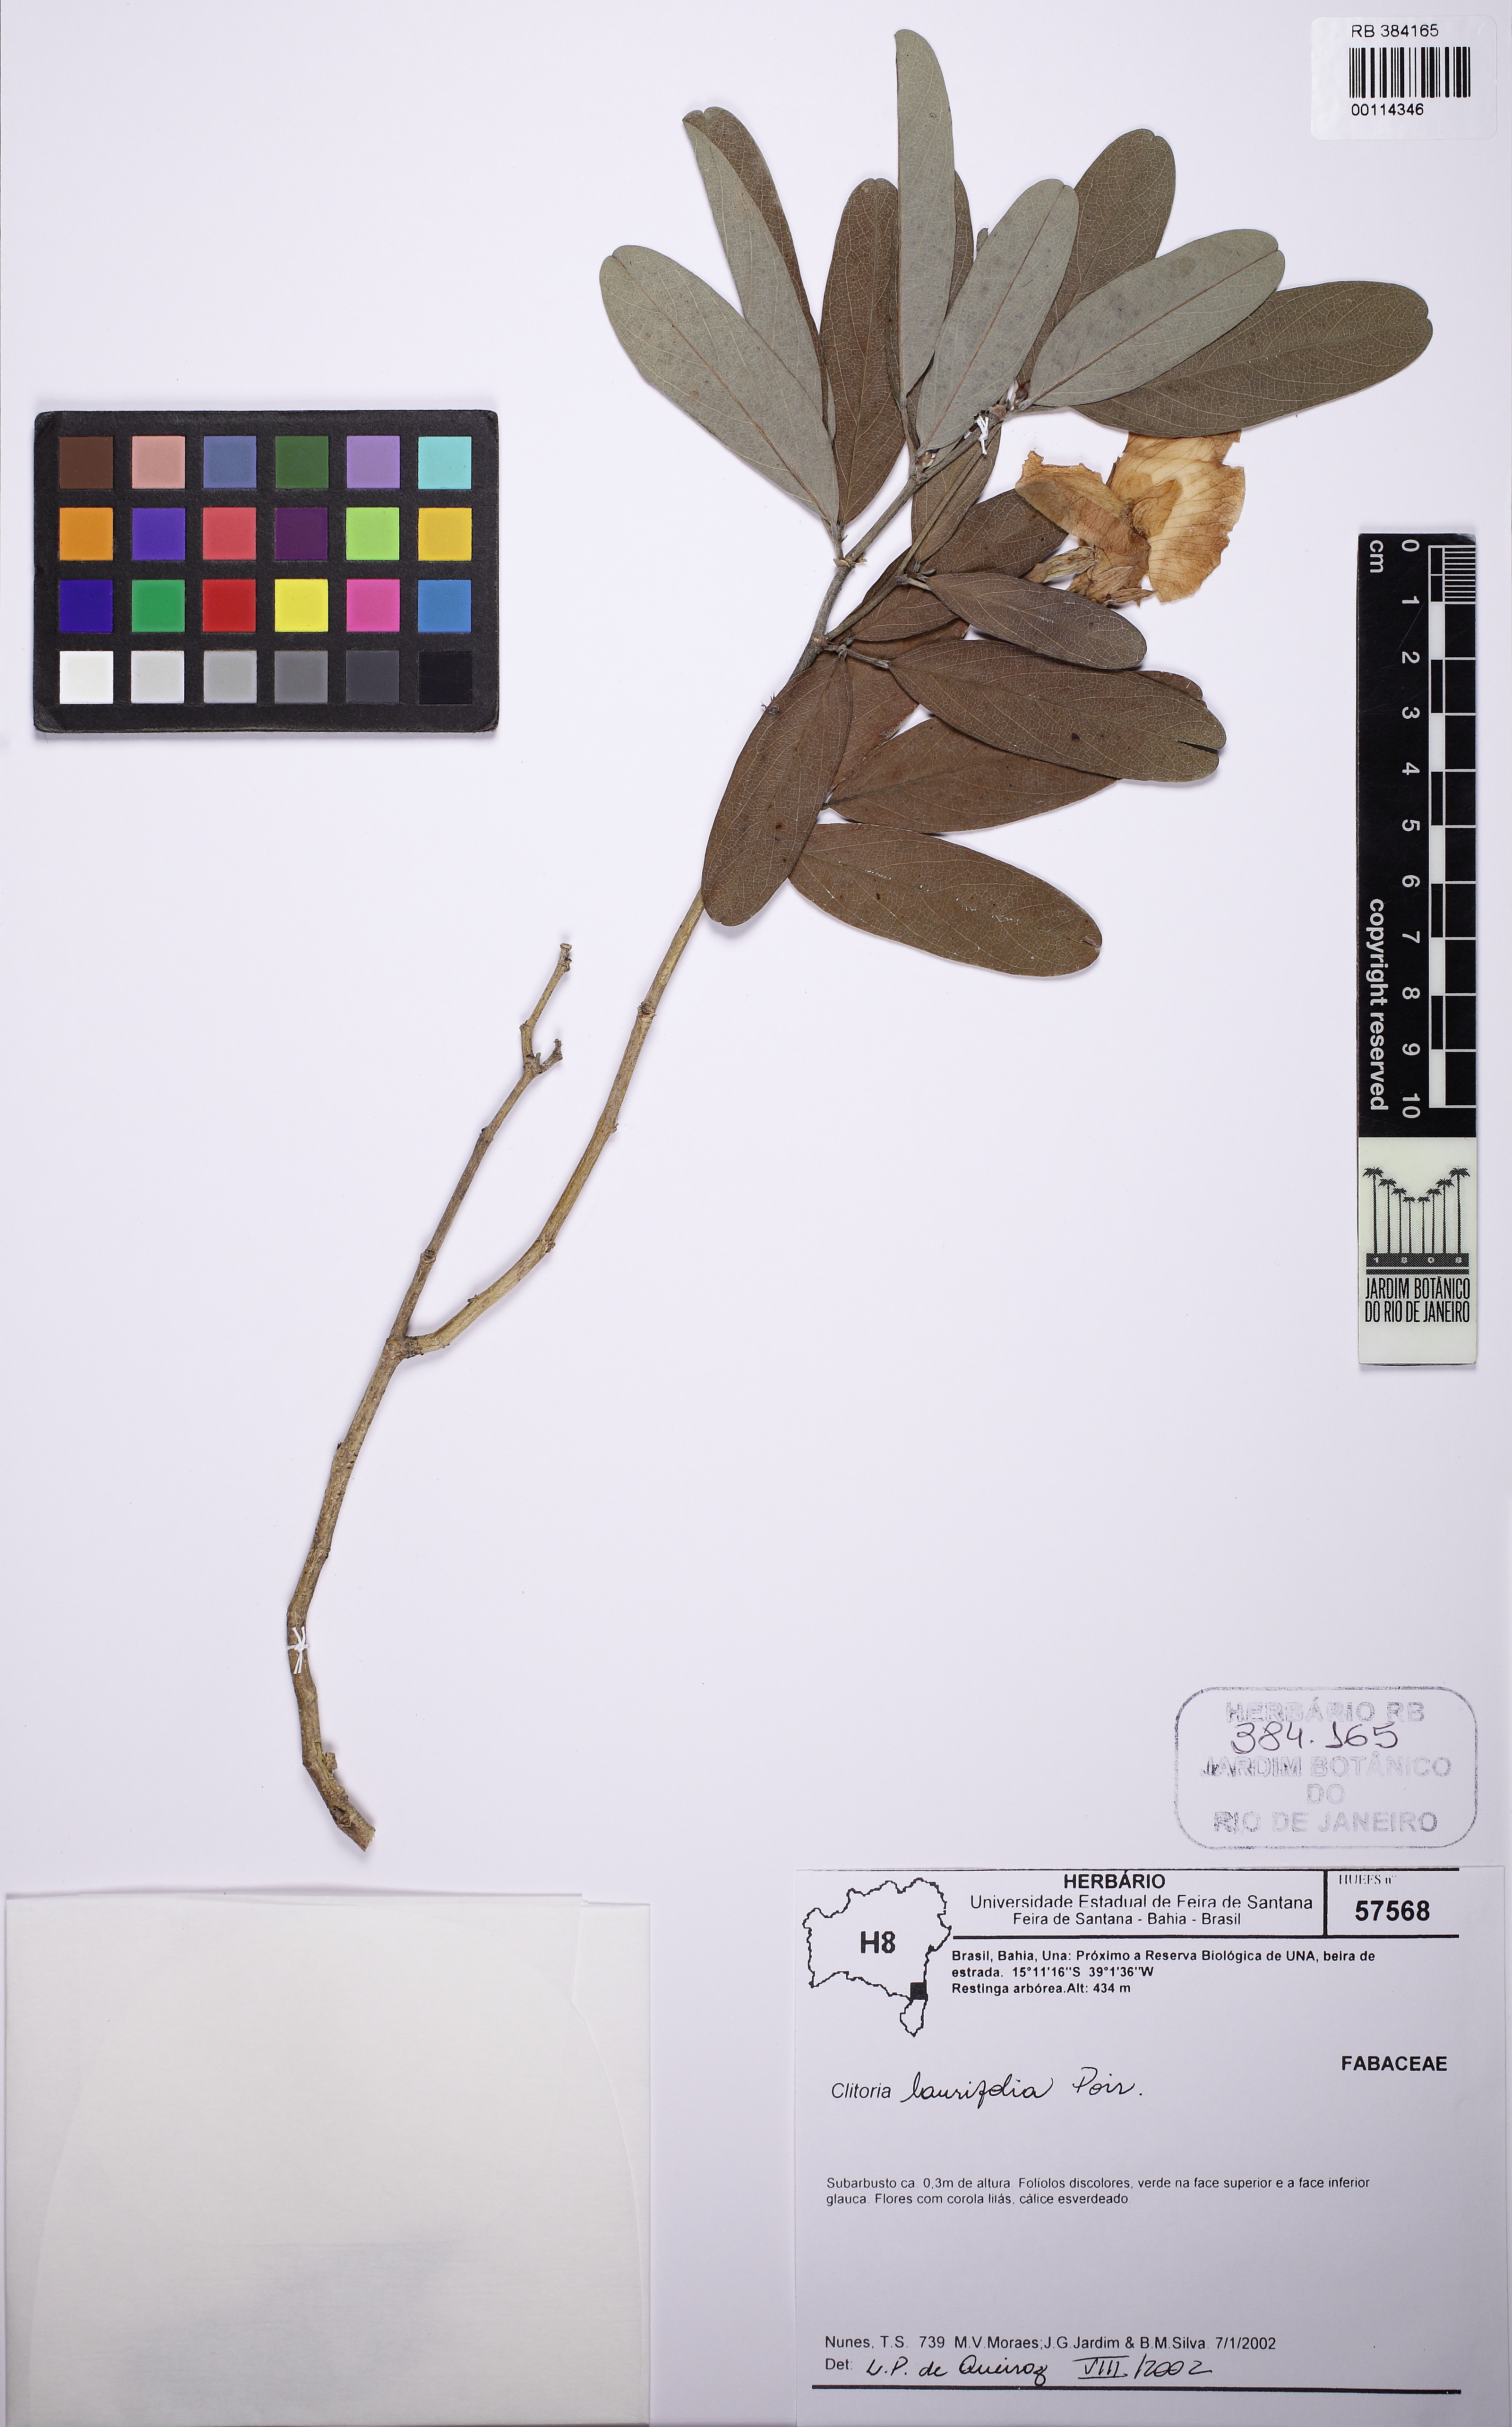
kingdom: Plantae
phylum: Tracheophyta
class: Magnoliopsida
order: Fabales
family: Fabaceae
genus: Clitoria
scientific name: Clitoria laurifolia
